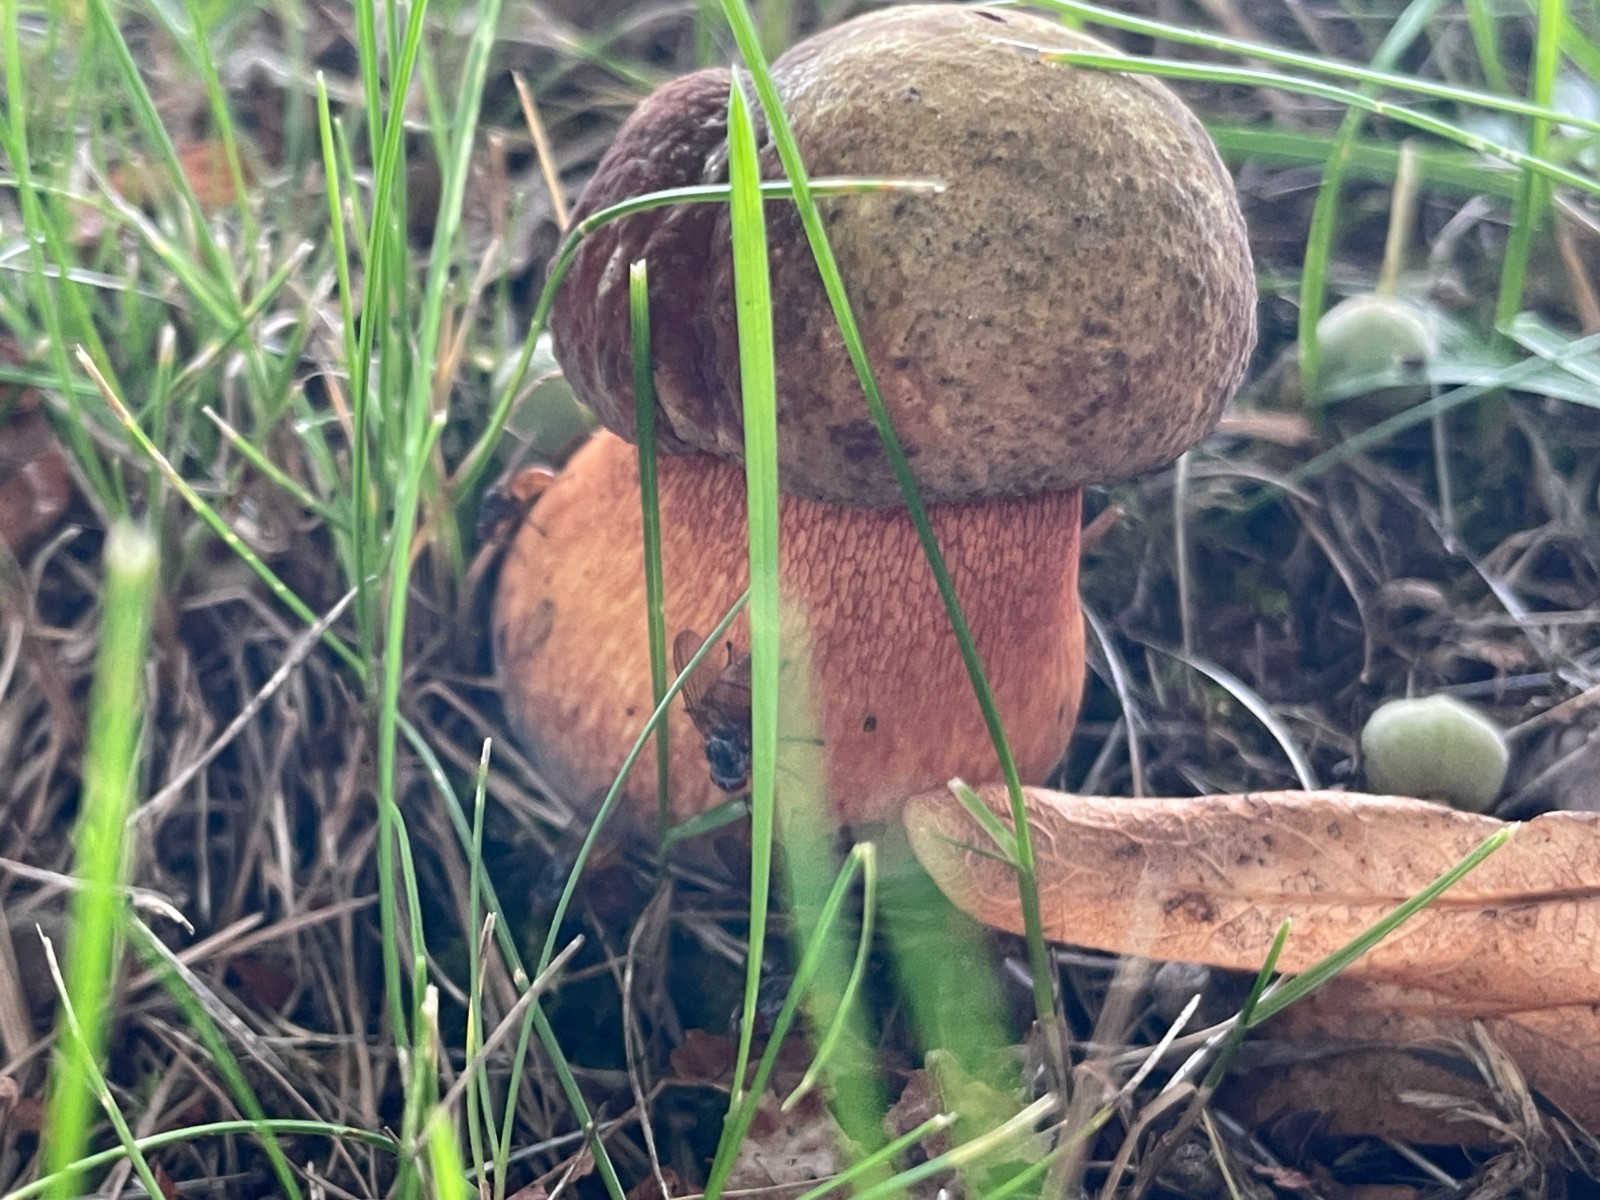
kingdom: Fungi
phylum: Basidiomycota
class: Agaricomycetes
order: Boletales
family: Boletaceae
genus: Suillellus
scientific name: Suillellus luridus
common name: netstokket indigorørhat
